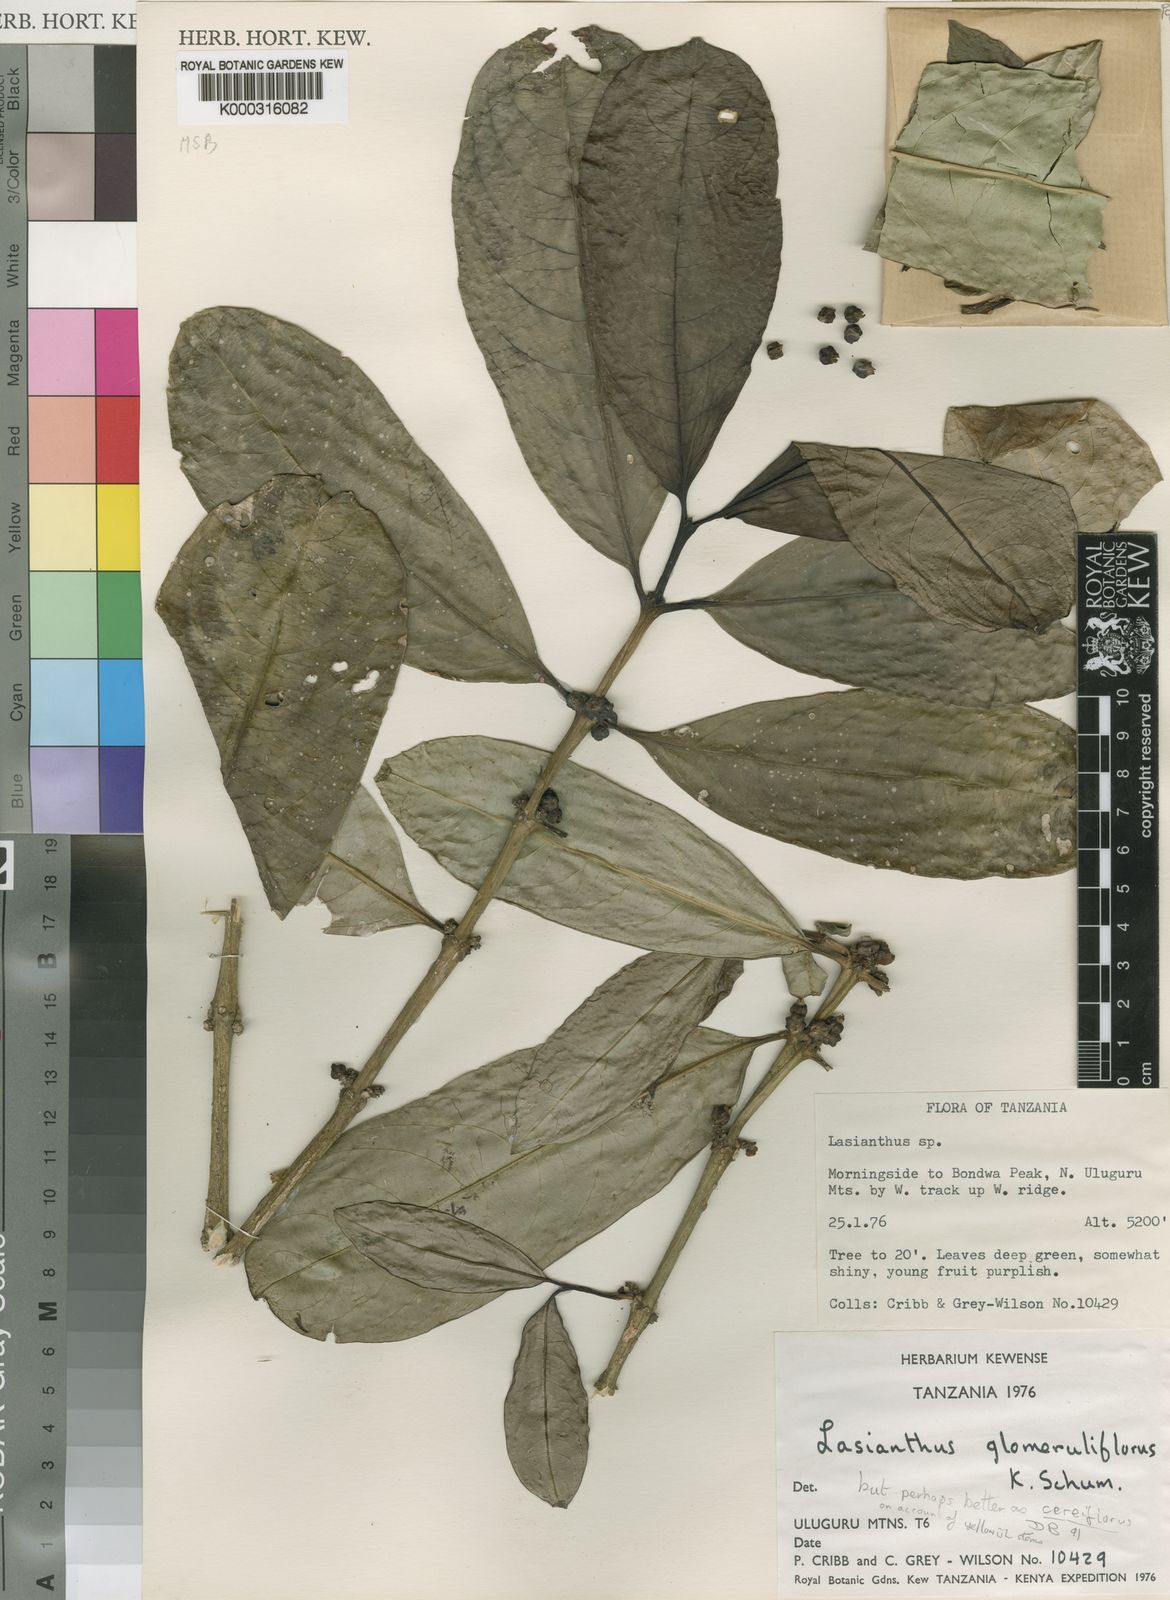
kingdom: Plantae
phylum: Tracheophyta
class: Magnoliopsida
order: Gentianales
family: Rubiaceae
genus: Lasianthus
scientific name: Lasianthus cereiflorus
